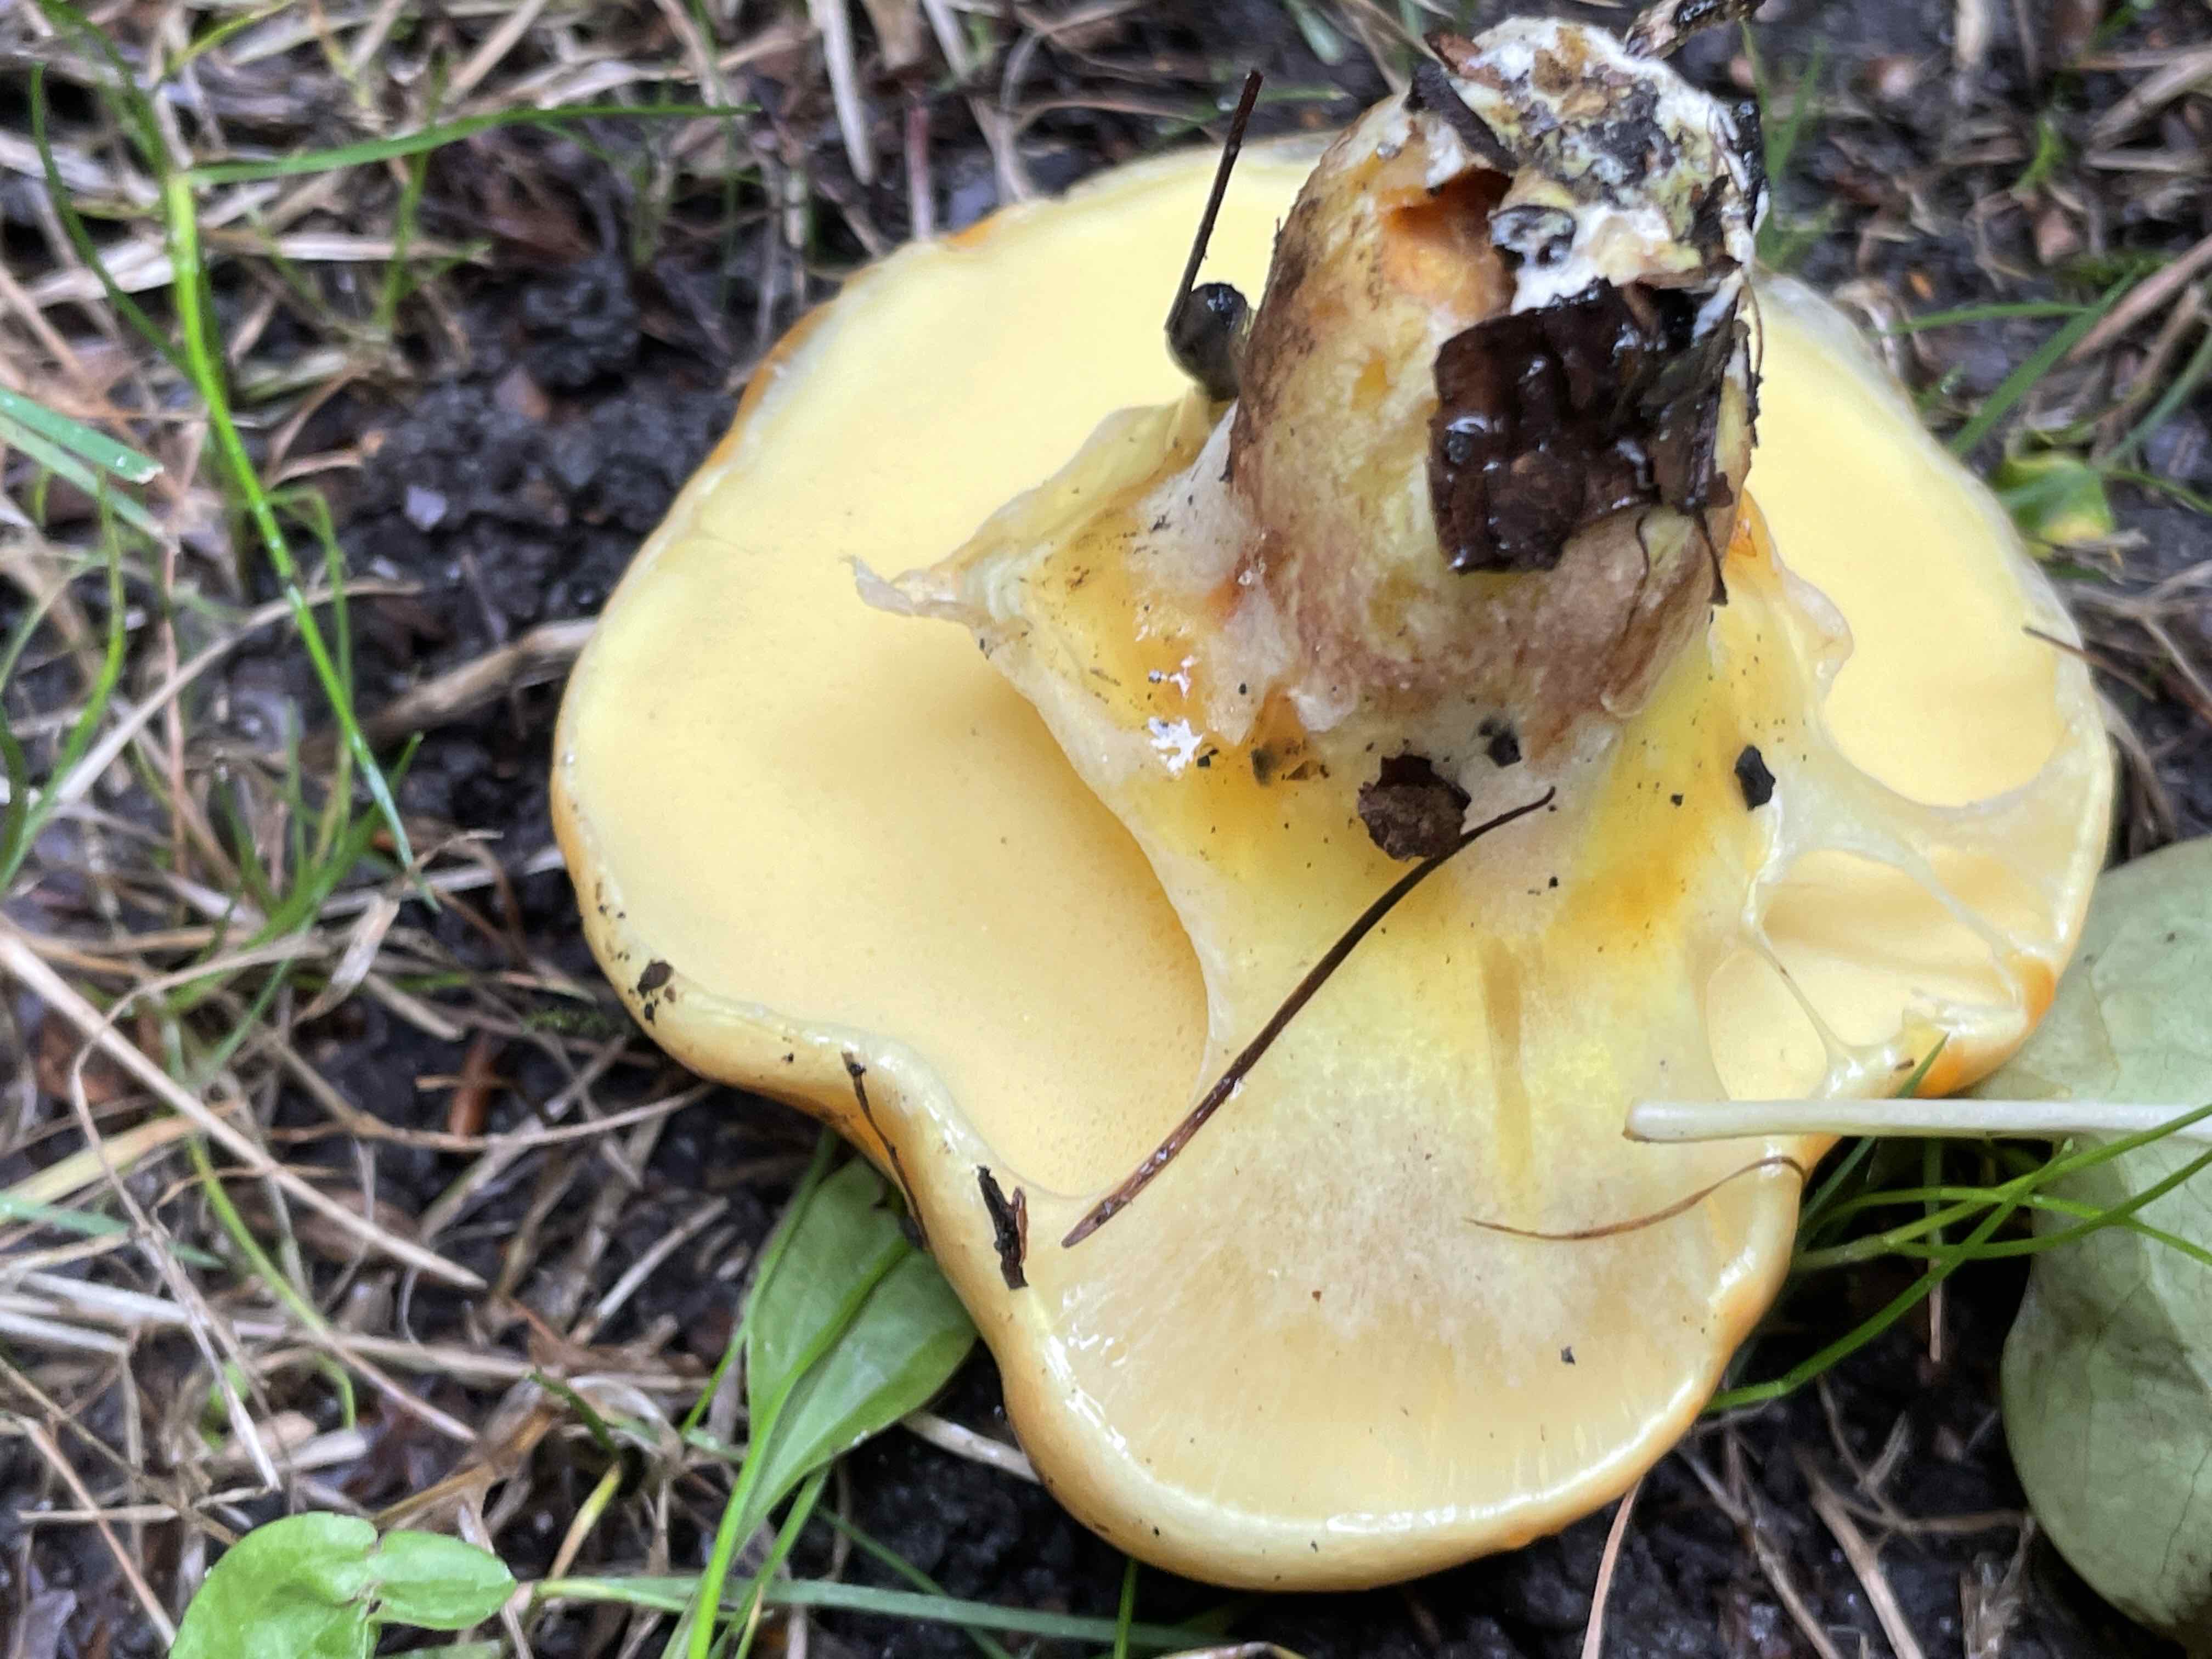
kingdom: Fungi
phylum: Basidiomycota
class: Agaricomycetes
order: Boletales
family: Suillaceae
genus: Suillus
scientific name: Suillus grevillei
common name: lærke-slimrørhat
